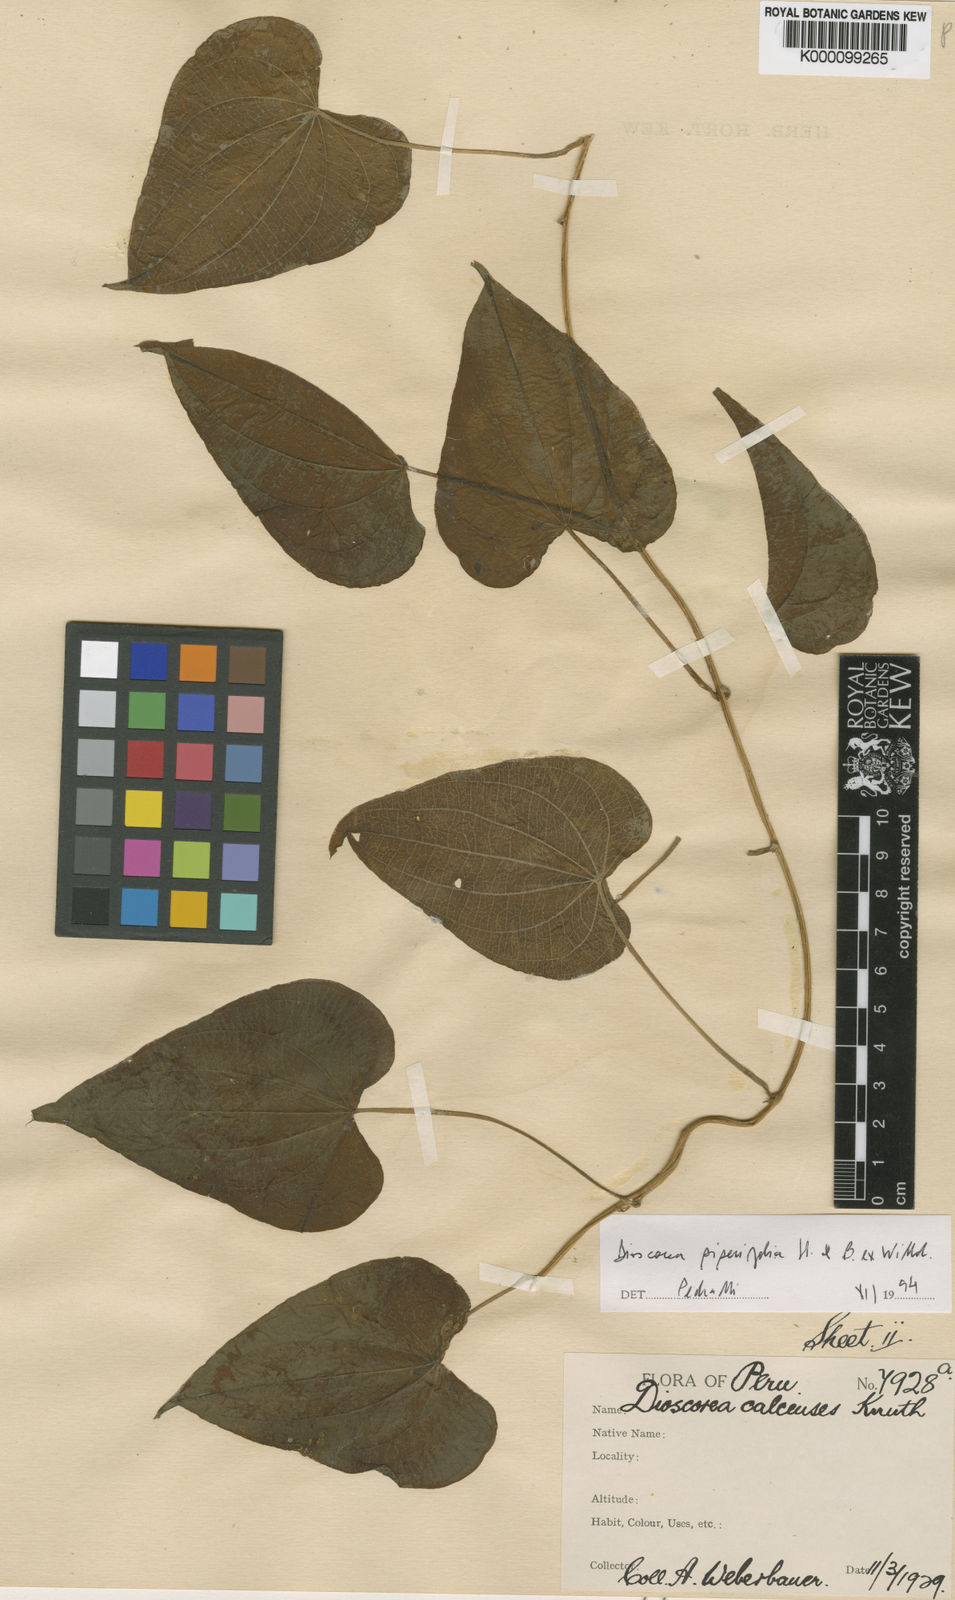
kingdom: Plantae
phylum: Tracheophyta
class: Liliopsida
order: Dioscoreales
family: Dioscoreaceae
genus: Dioscorea
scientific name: Dioscorea glandulosa
